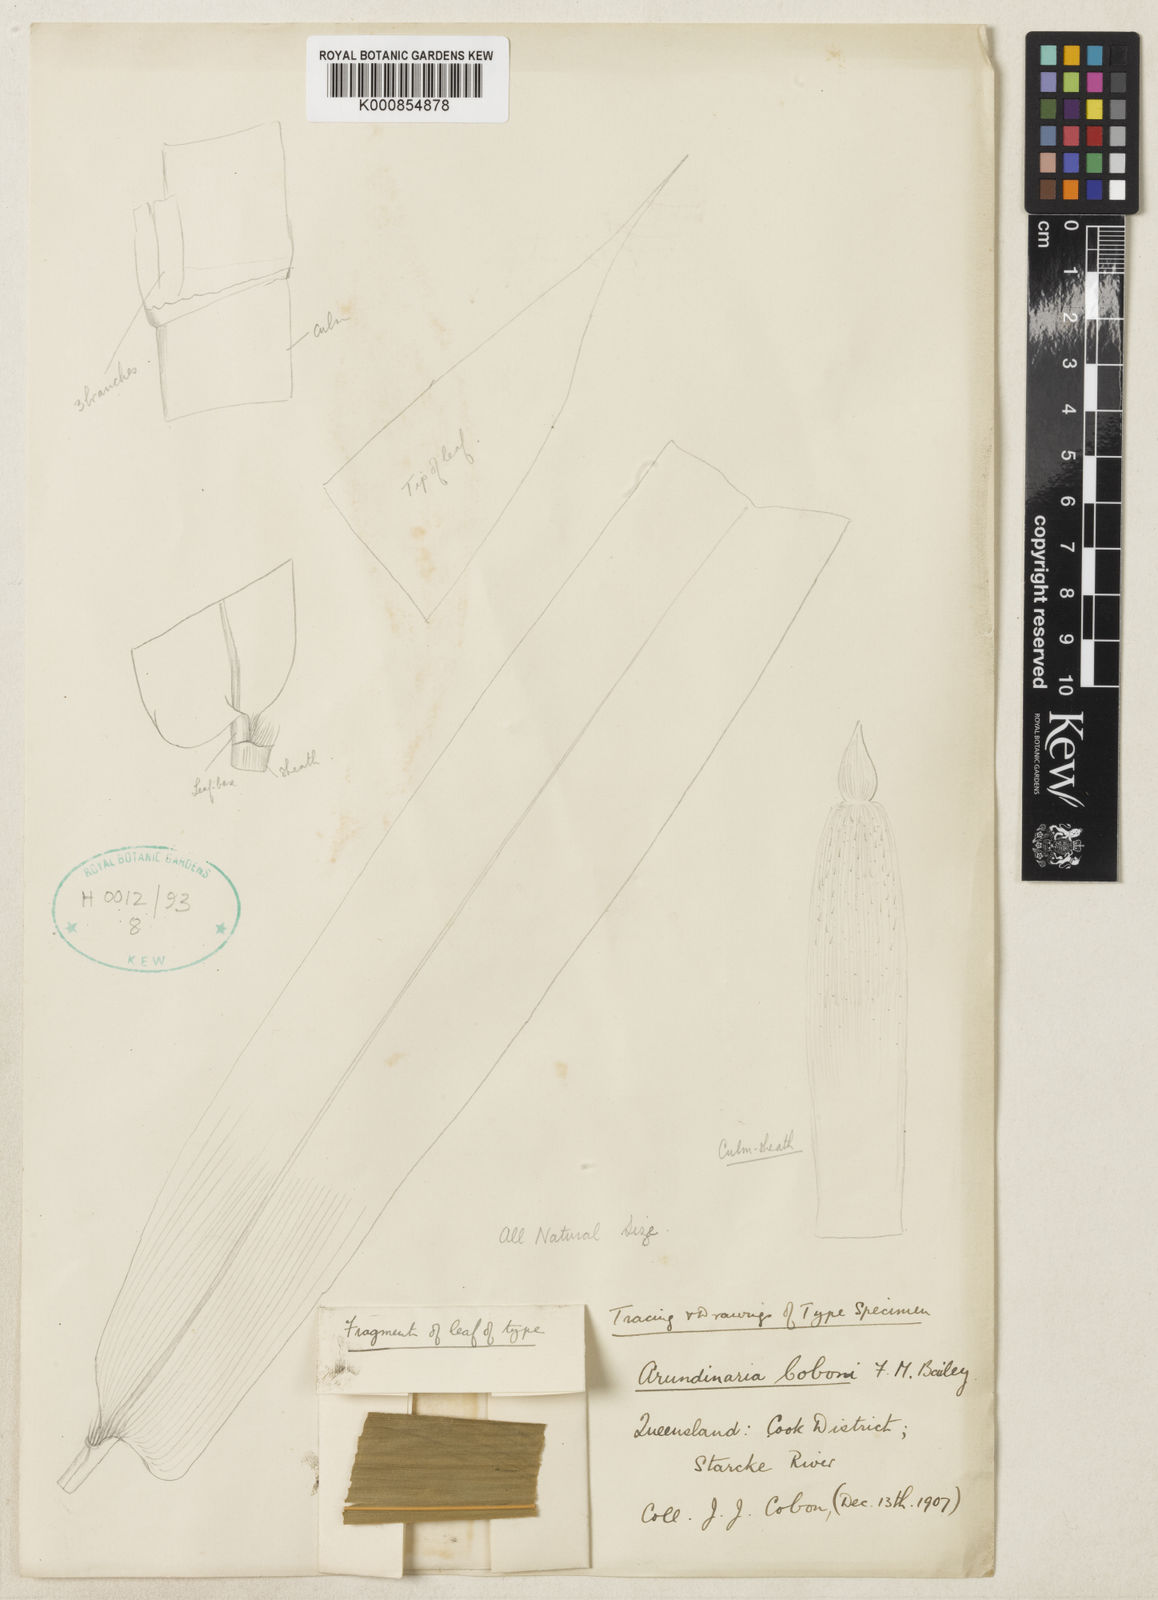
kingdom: Plantae
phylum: Tracheophyta
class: Liliopsida
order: Poales
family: Poaceae
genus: Mullerochloa
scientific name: Mullerochloa moreheadiana
